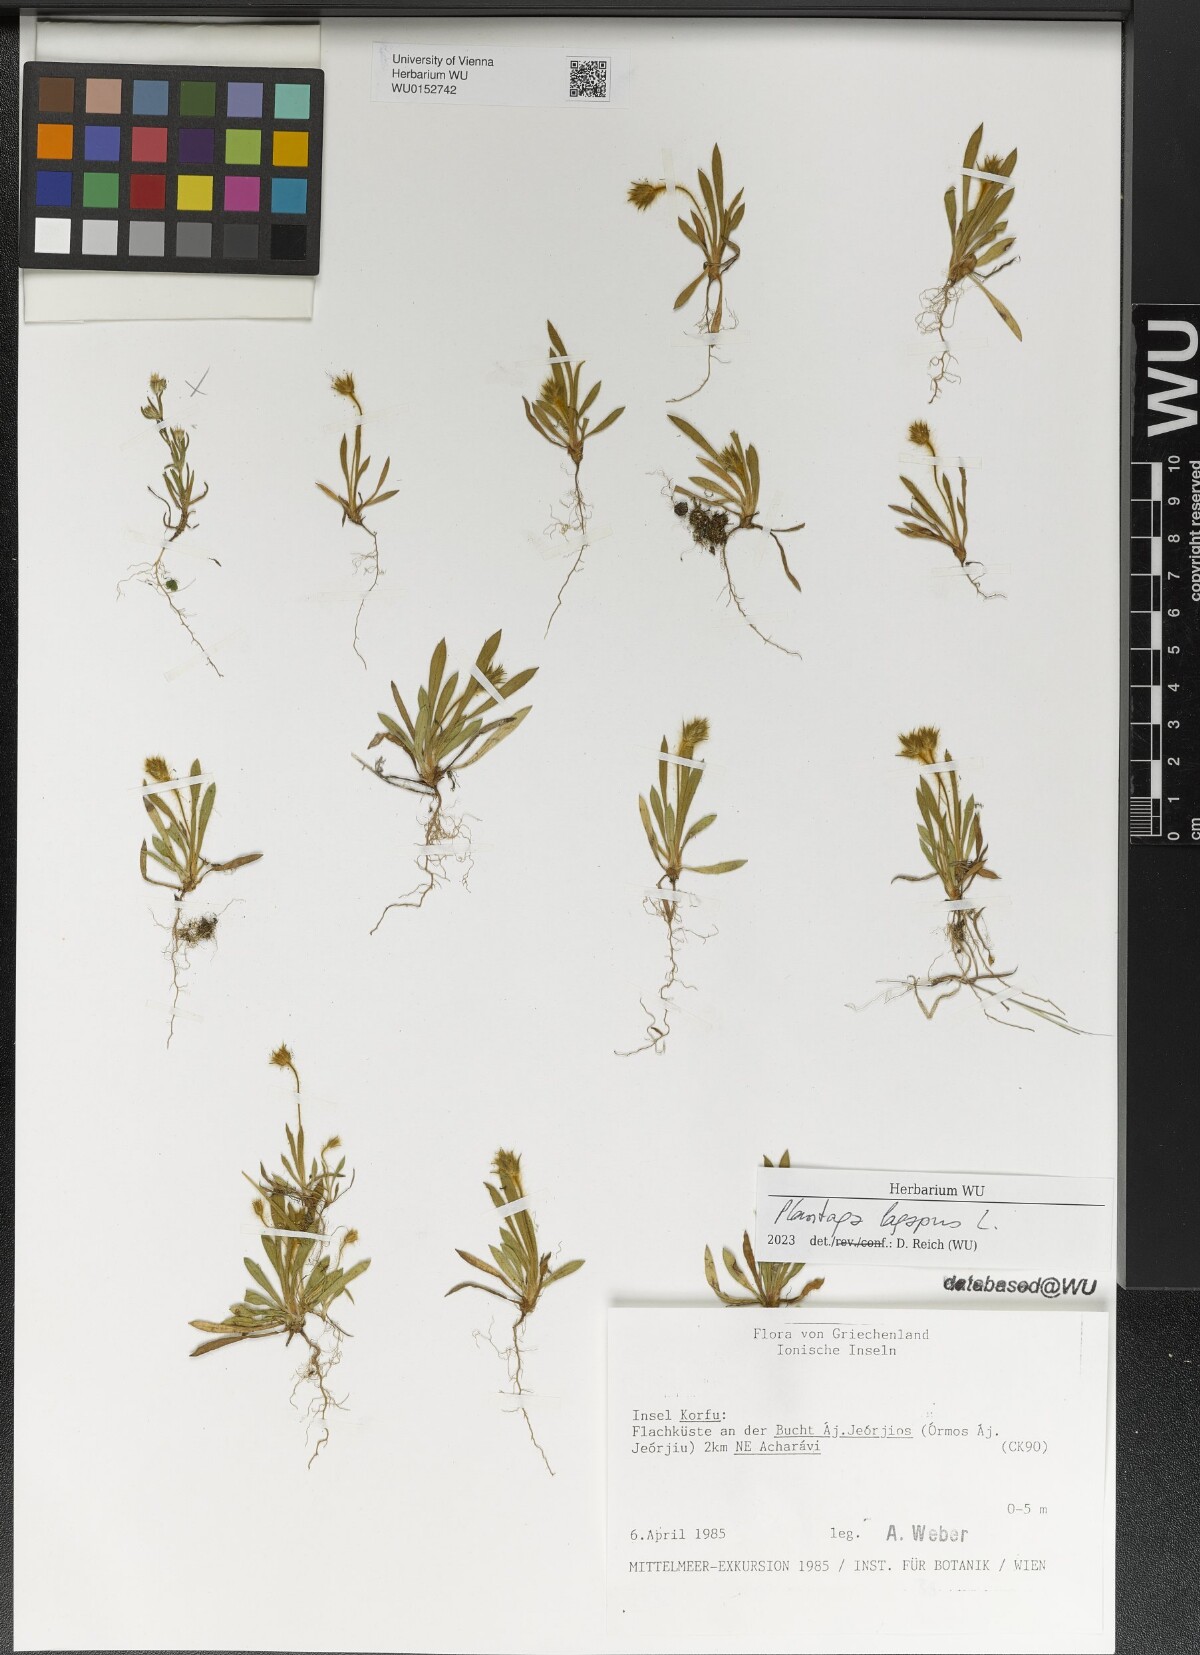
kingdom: Plantae
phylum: Tracheophyta
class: Magnoliopsida
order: Lamiales
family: Plantaginaceae
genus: Plantago
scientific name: Plantago lagopus
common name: Hare-foot plantain
